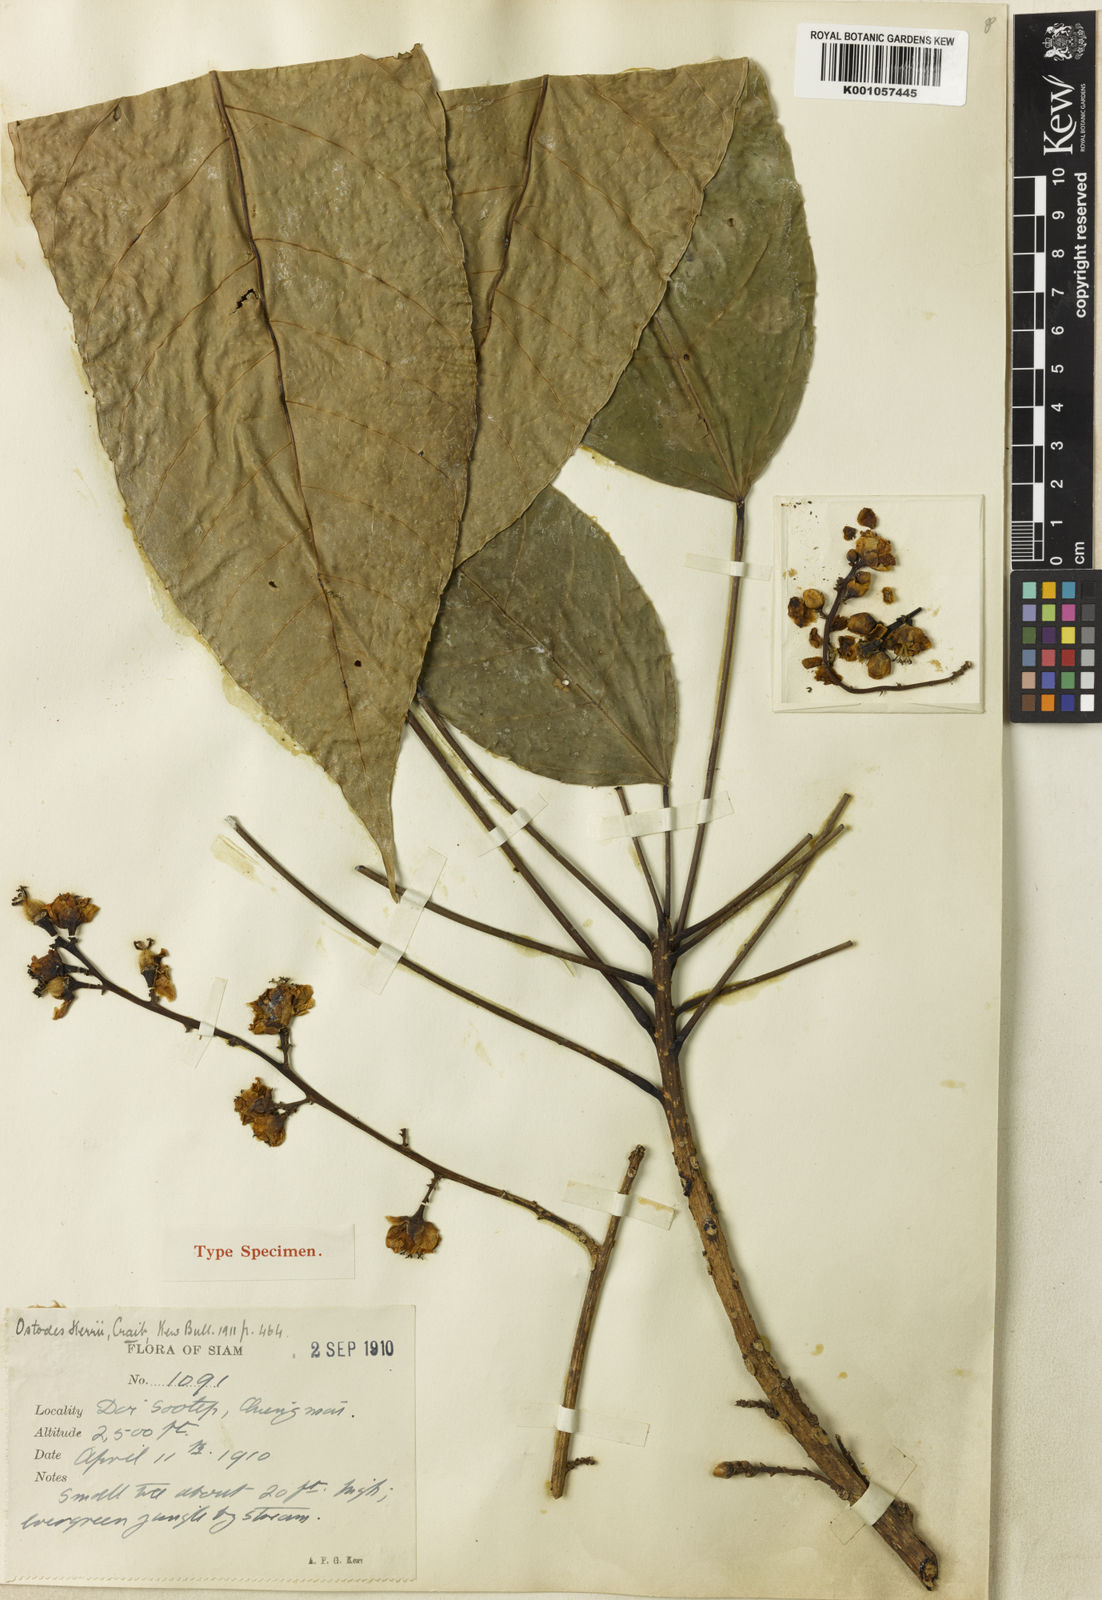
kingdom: Plantae
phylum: Tracheophyta
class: Magnoliopsida
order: Malpighiales
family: Euphorbiaceae
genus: Ostodes
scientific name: Ostodes paniculata
